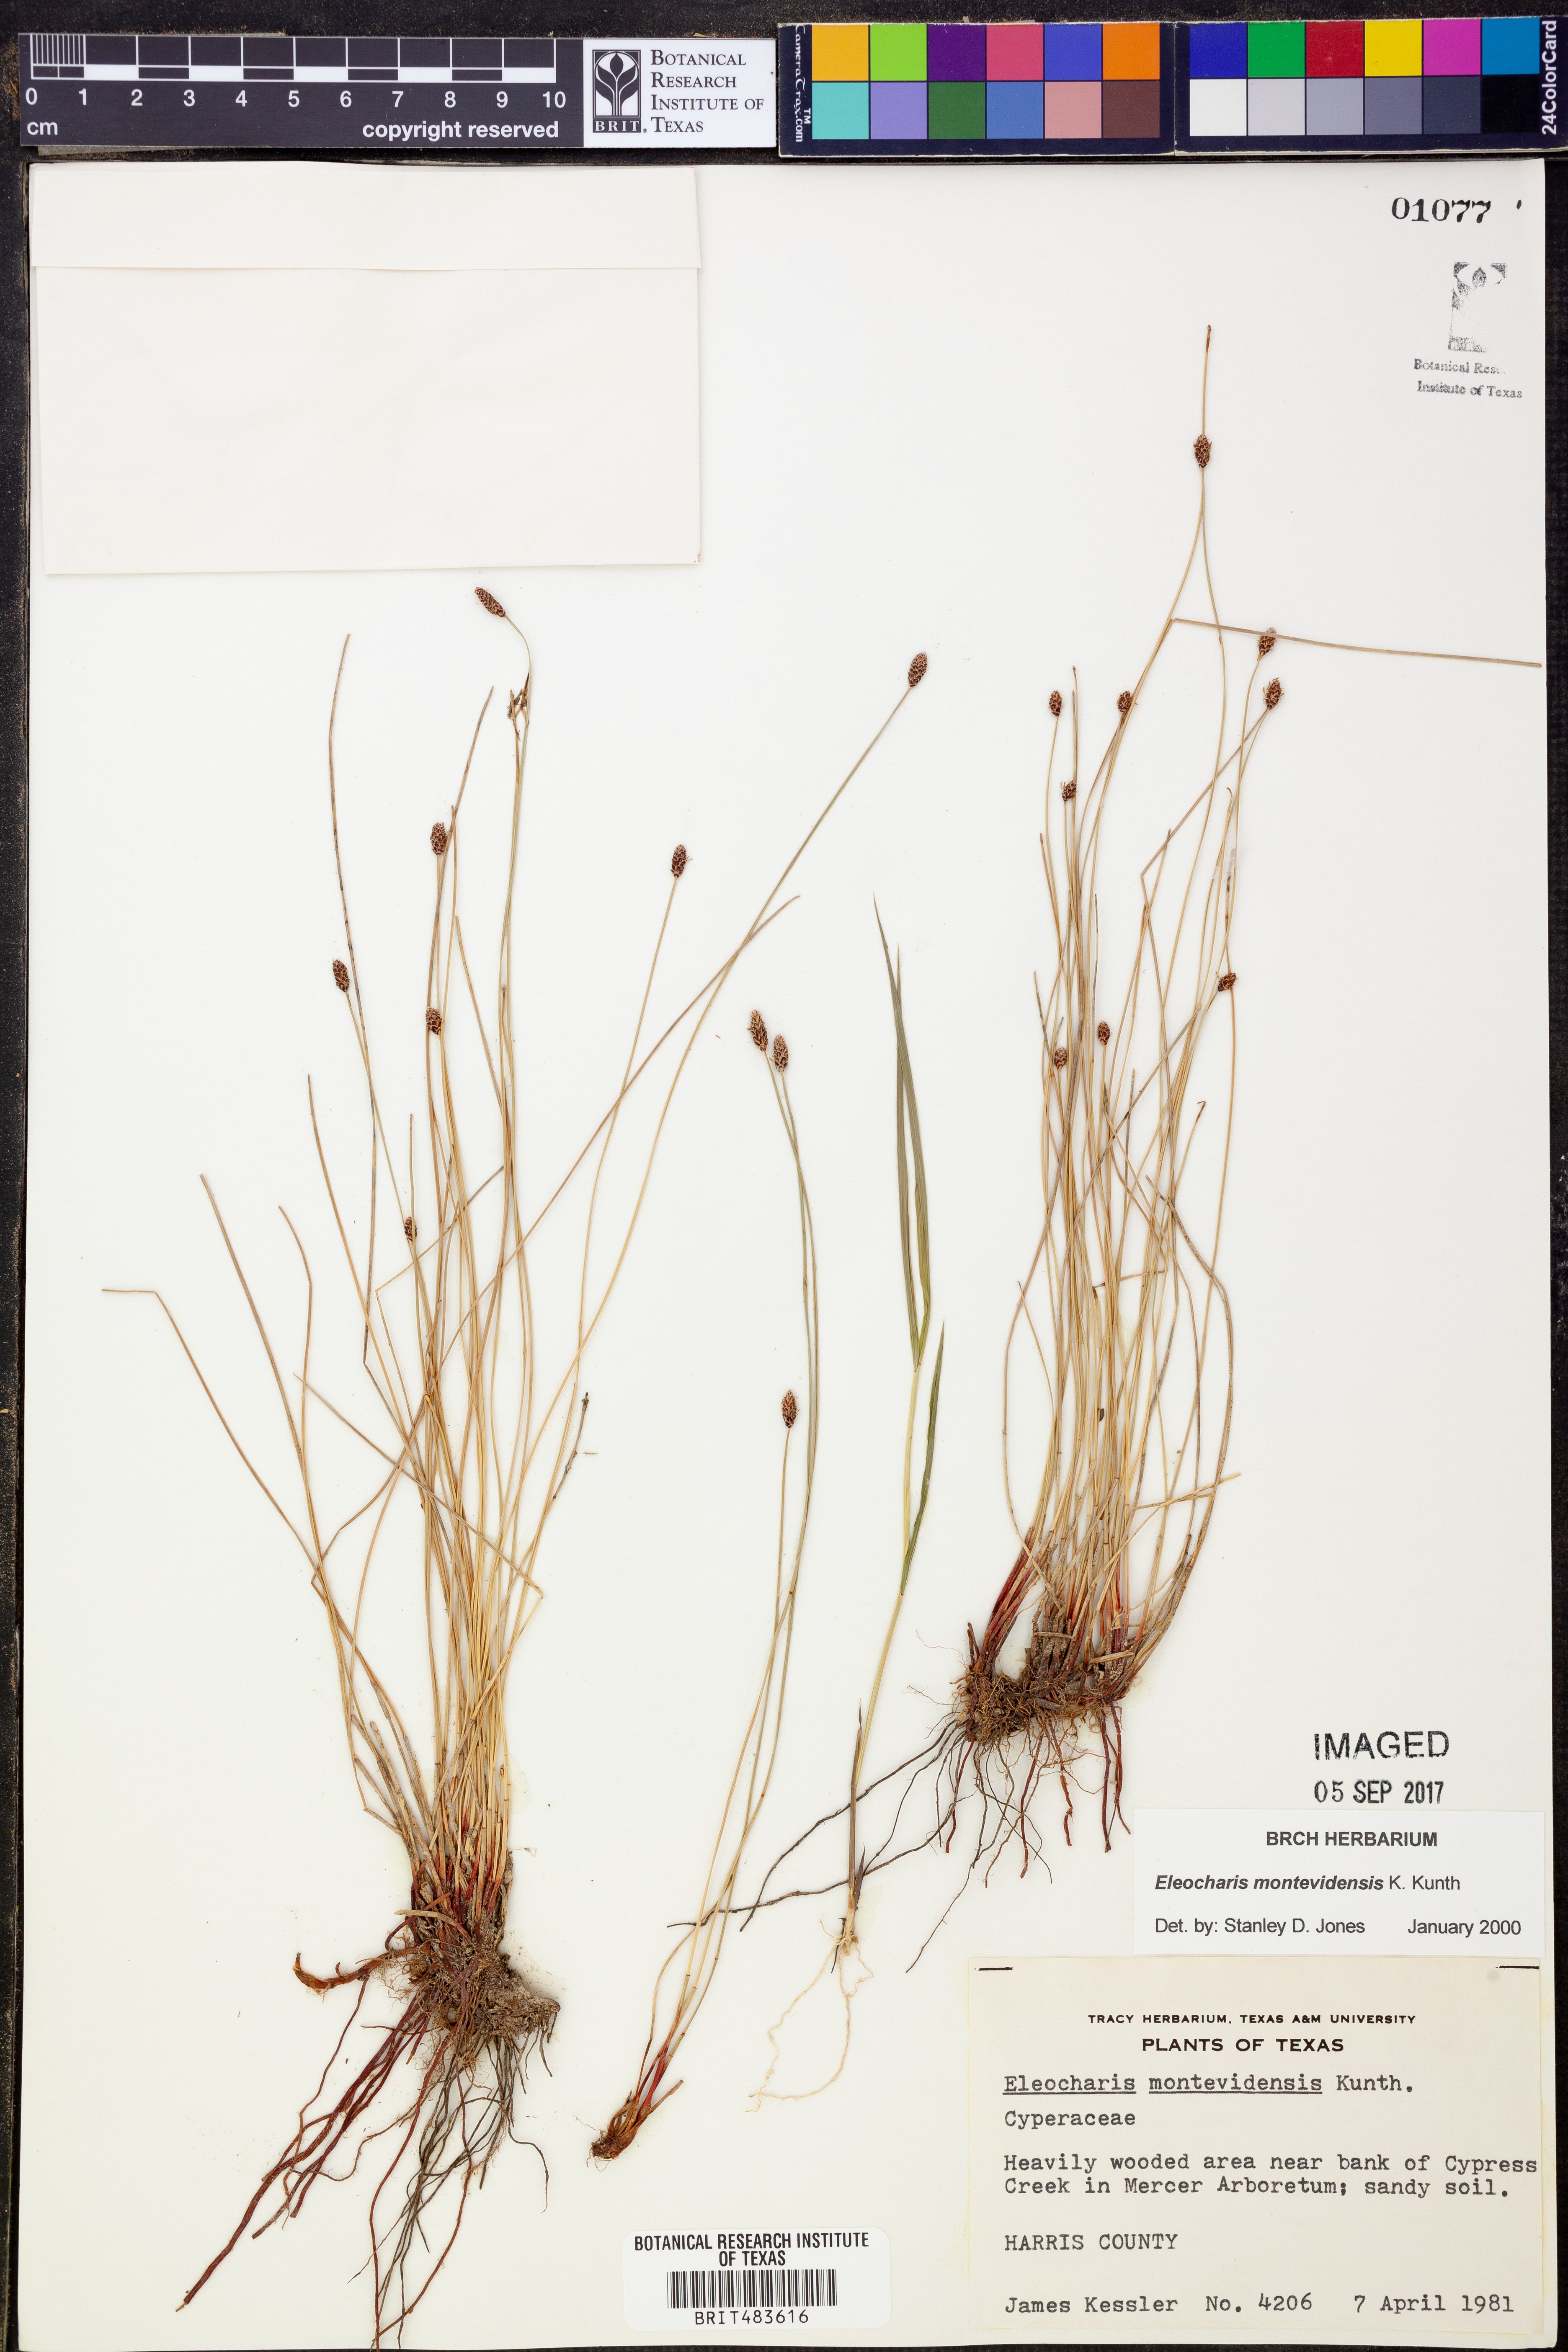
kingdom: Plantae
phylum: Tracheophyta
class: Liliopsida
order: Poales
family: Cyperaceae
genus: Eleocharis
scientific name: Eleocharis montevidensis
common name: Sand spike-rush
